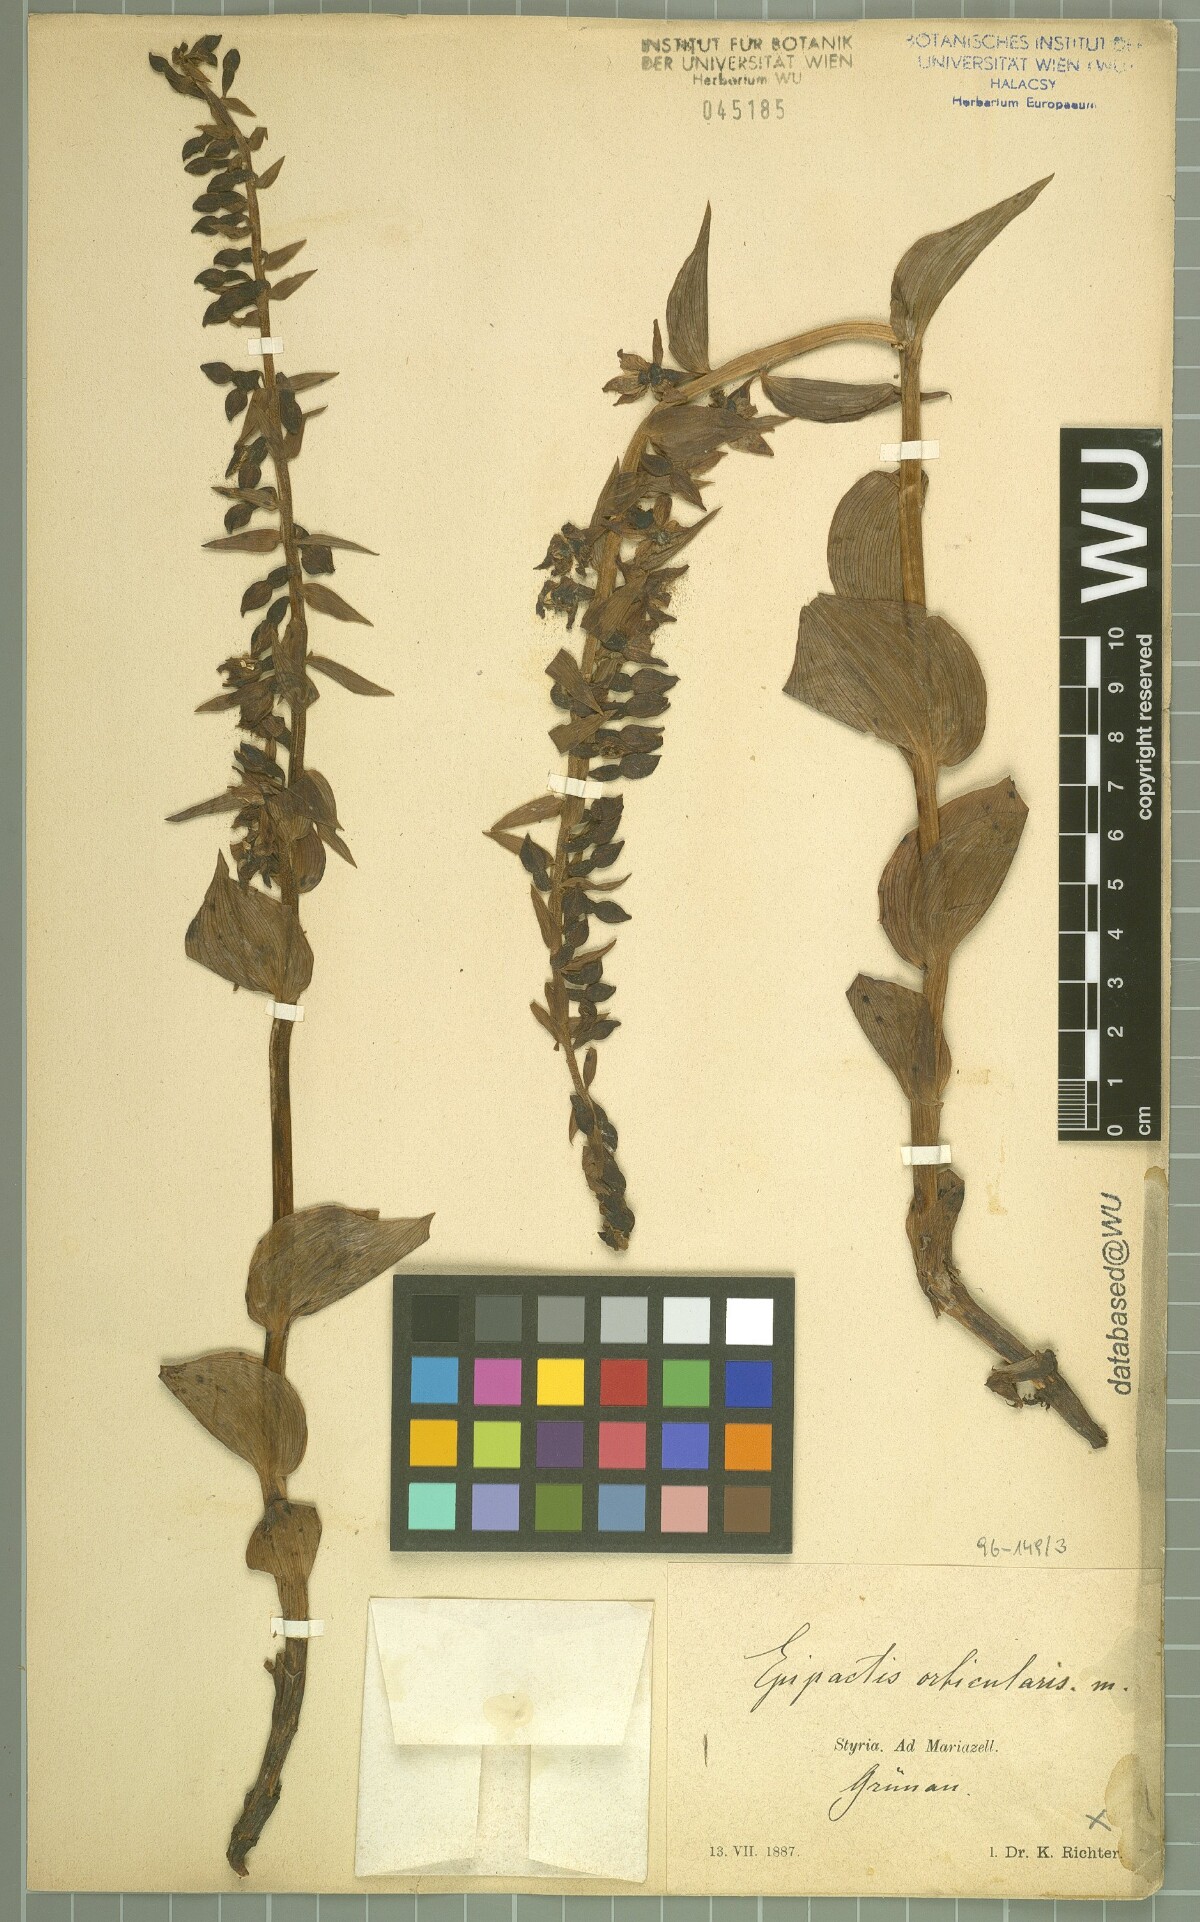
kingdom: Plantae
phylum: Tracheophyta
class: Liliopsida
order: Asparagales
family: Orchidaceae
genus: Epipactis
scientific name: Epipactis helleborine
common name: Broad-leaved helleborine
